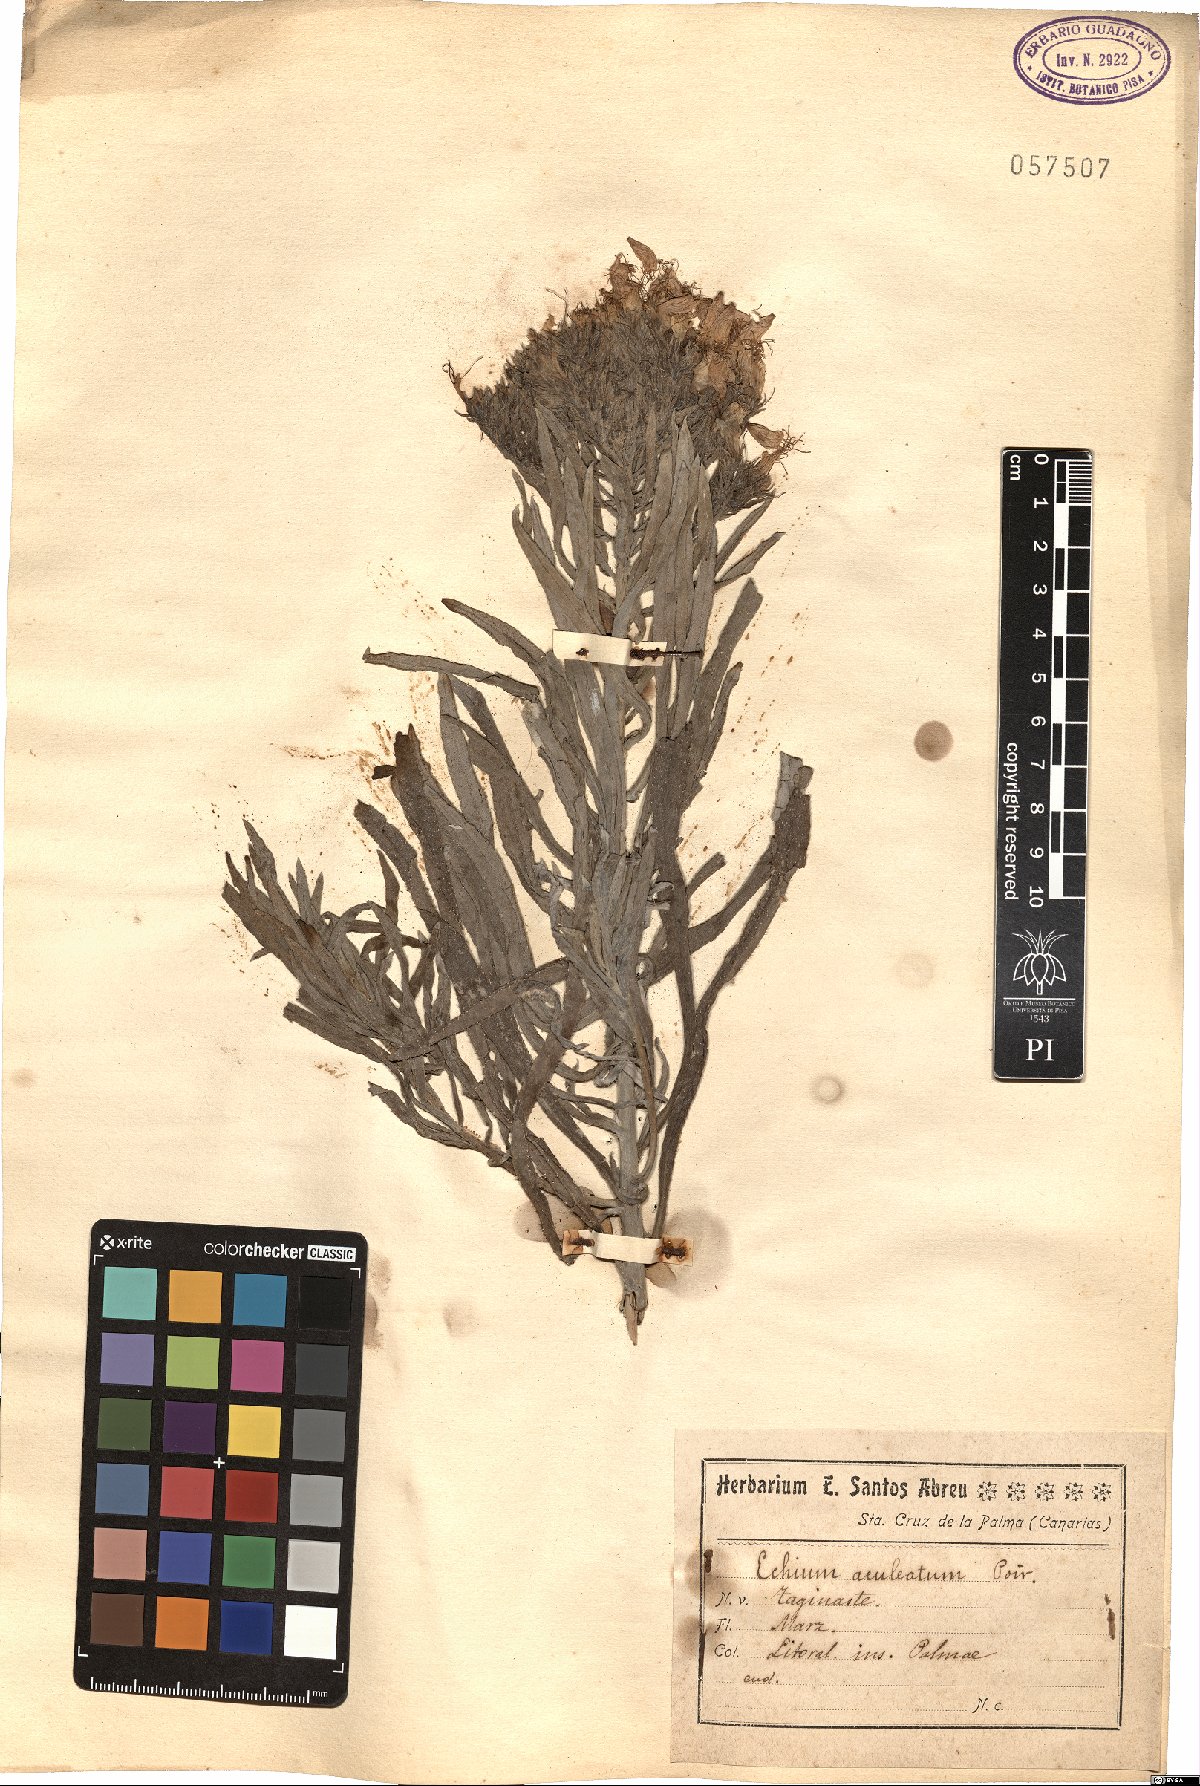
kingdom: Plantae
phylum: Tracheophyta
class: Magnoliopsida
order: Boraginales
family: Boraginaceae
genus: Echium
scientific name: Echium aculeatum
